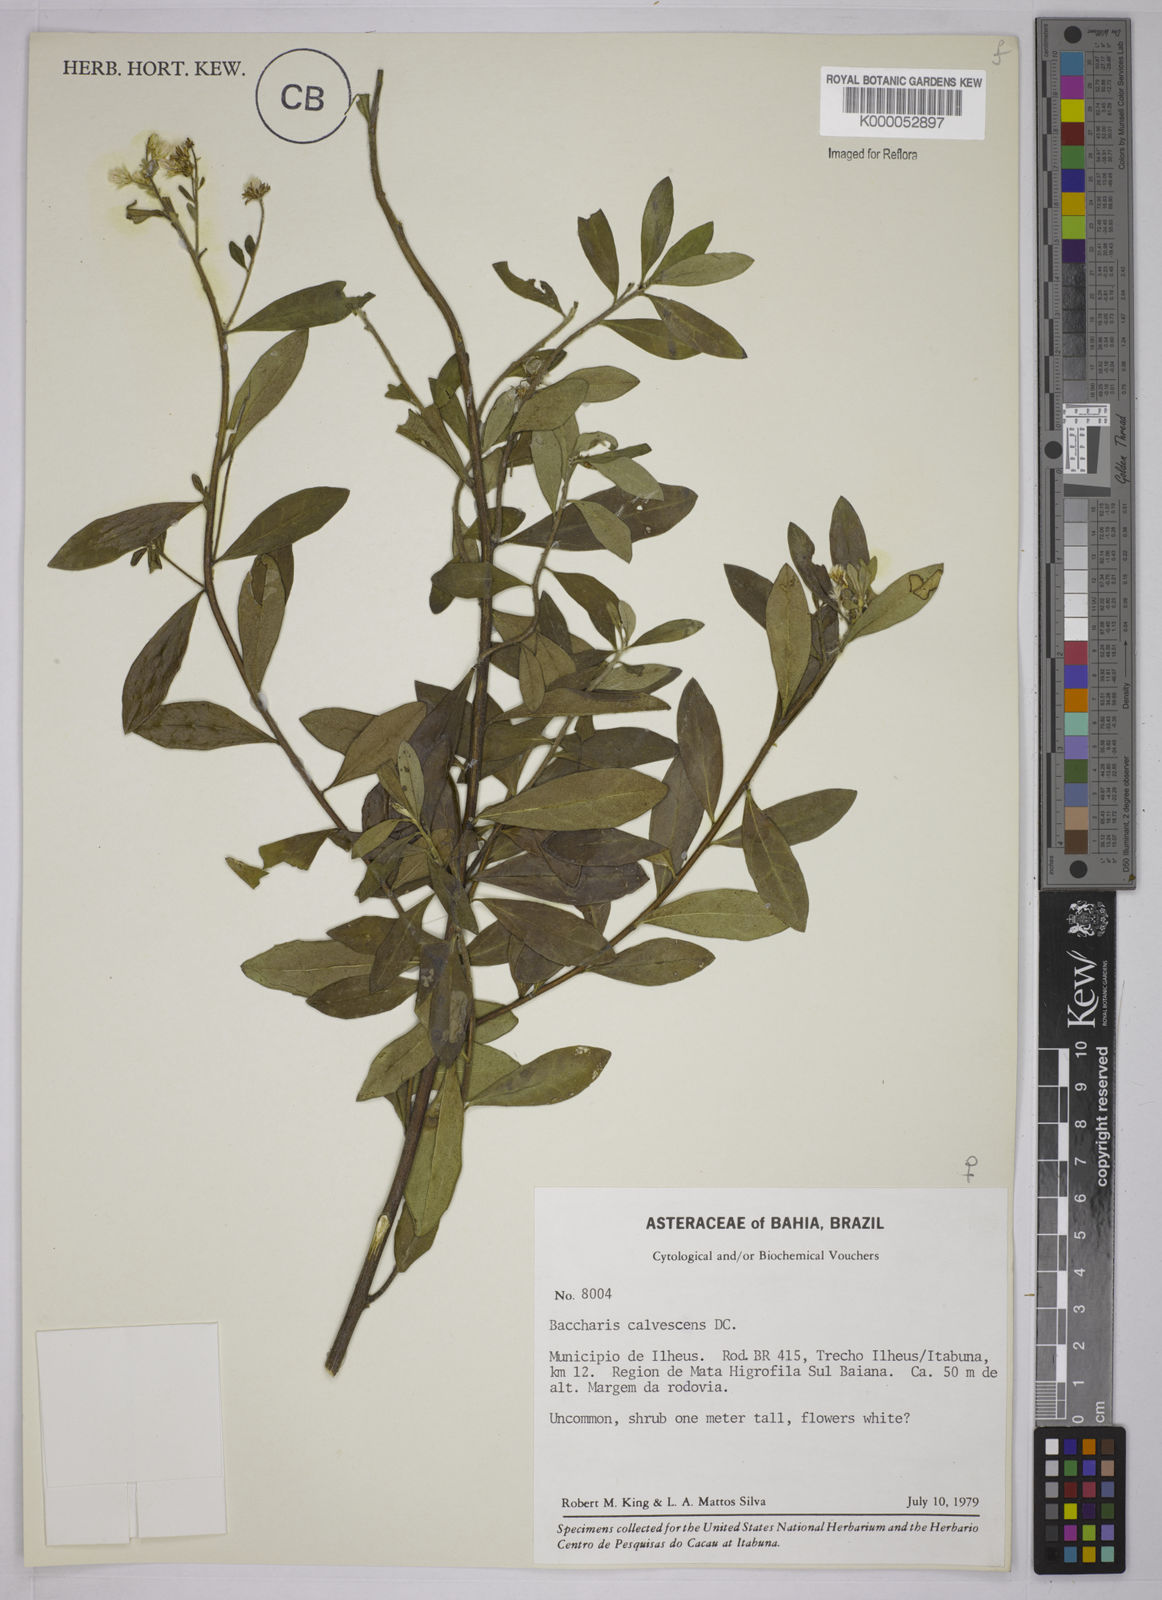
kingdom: Plantae
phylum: Tracheophyta
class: Magnoliopsida
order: Asterales
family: Asteraceae
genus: Baccharis
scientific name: Baccharis calvescens
